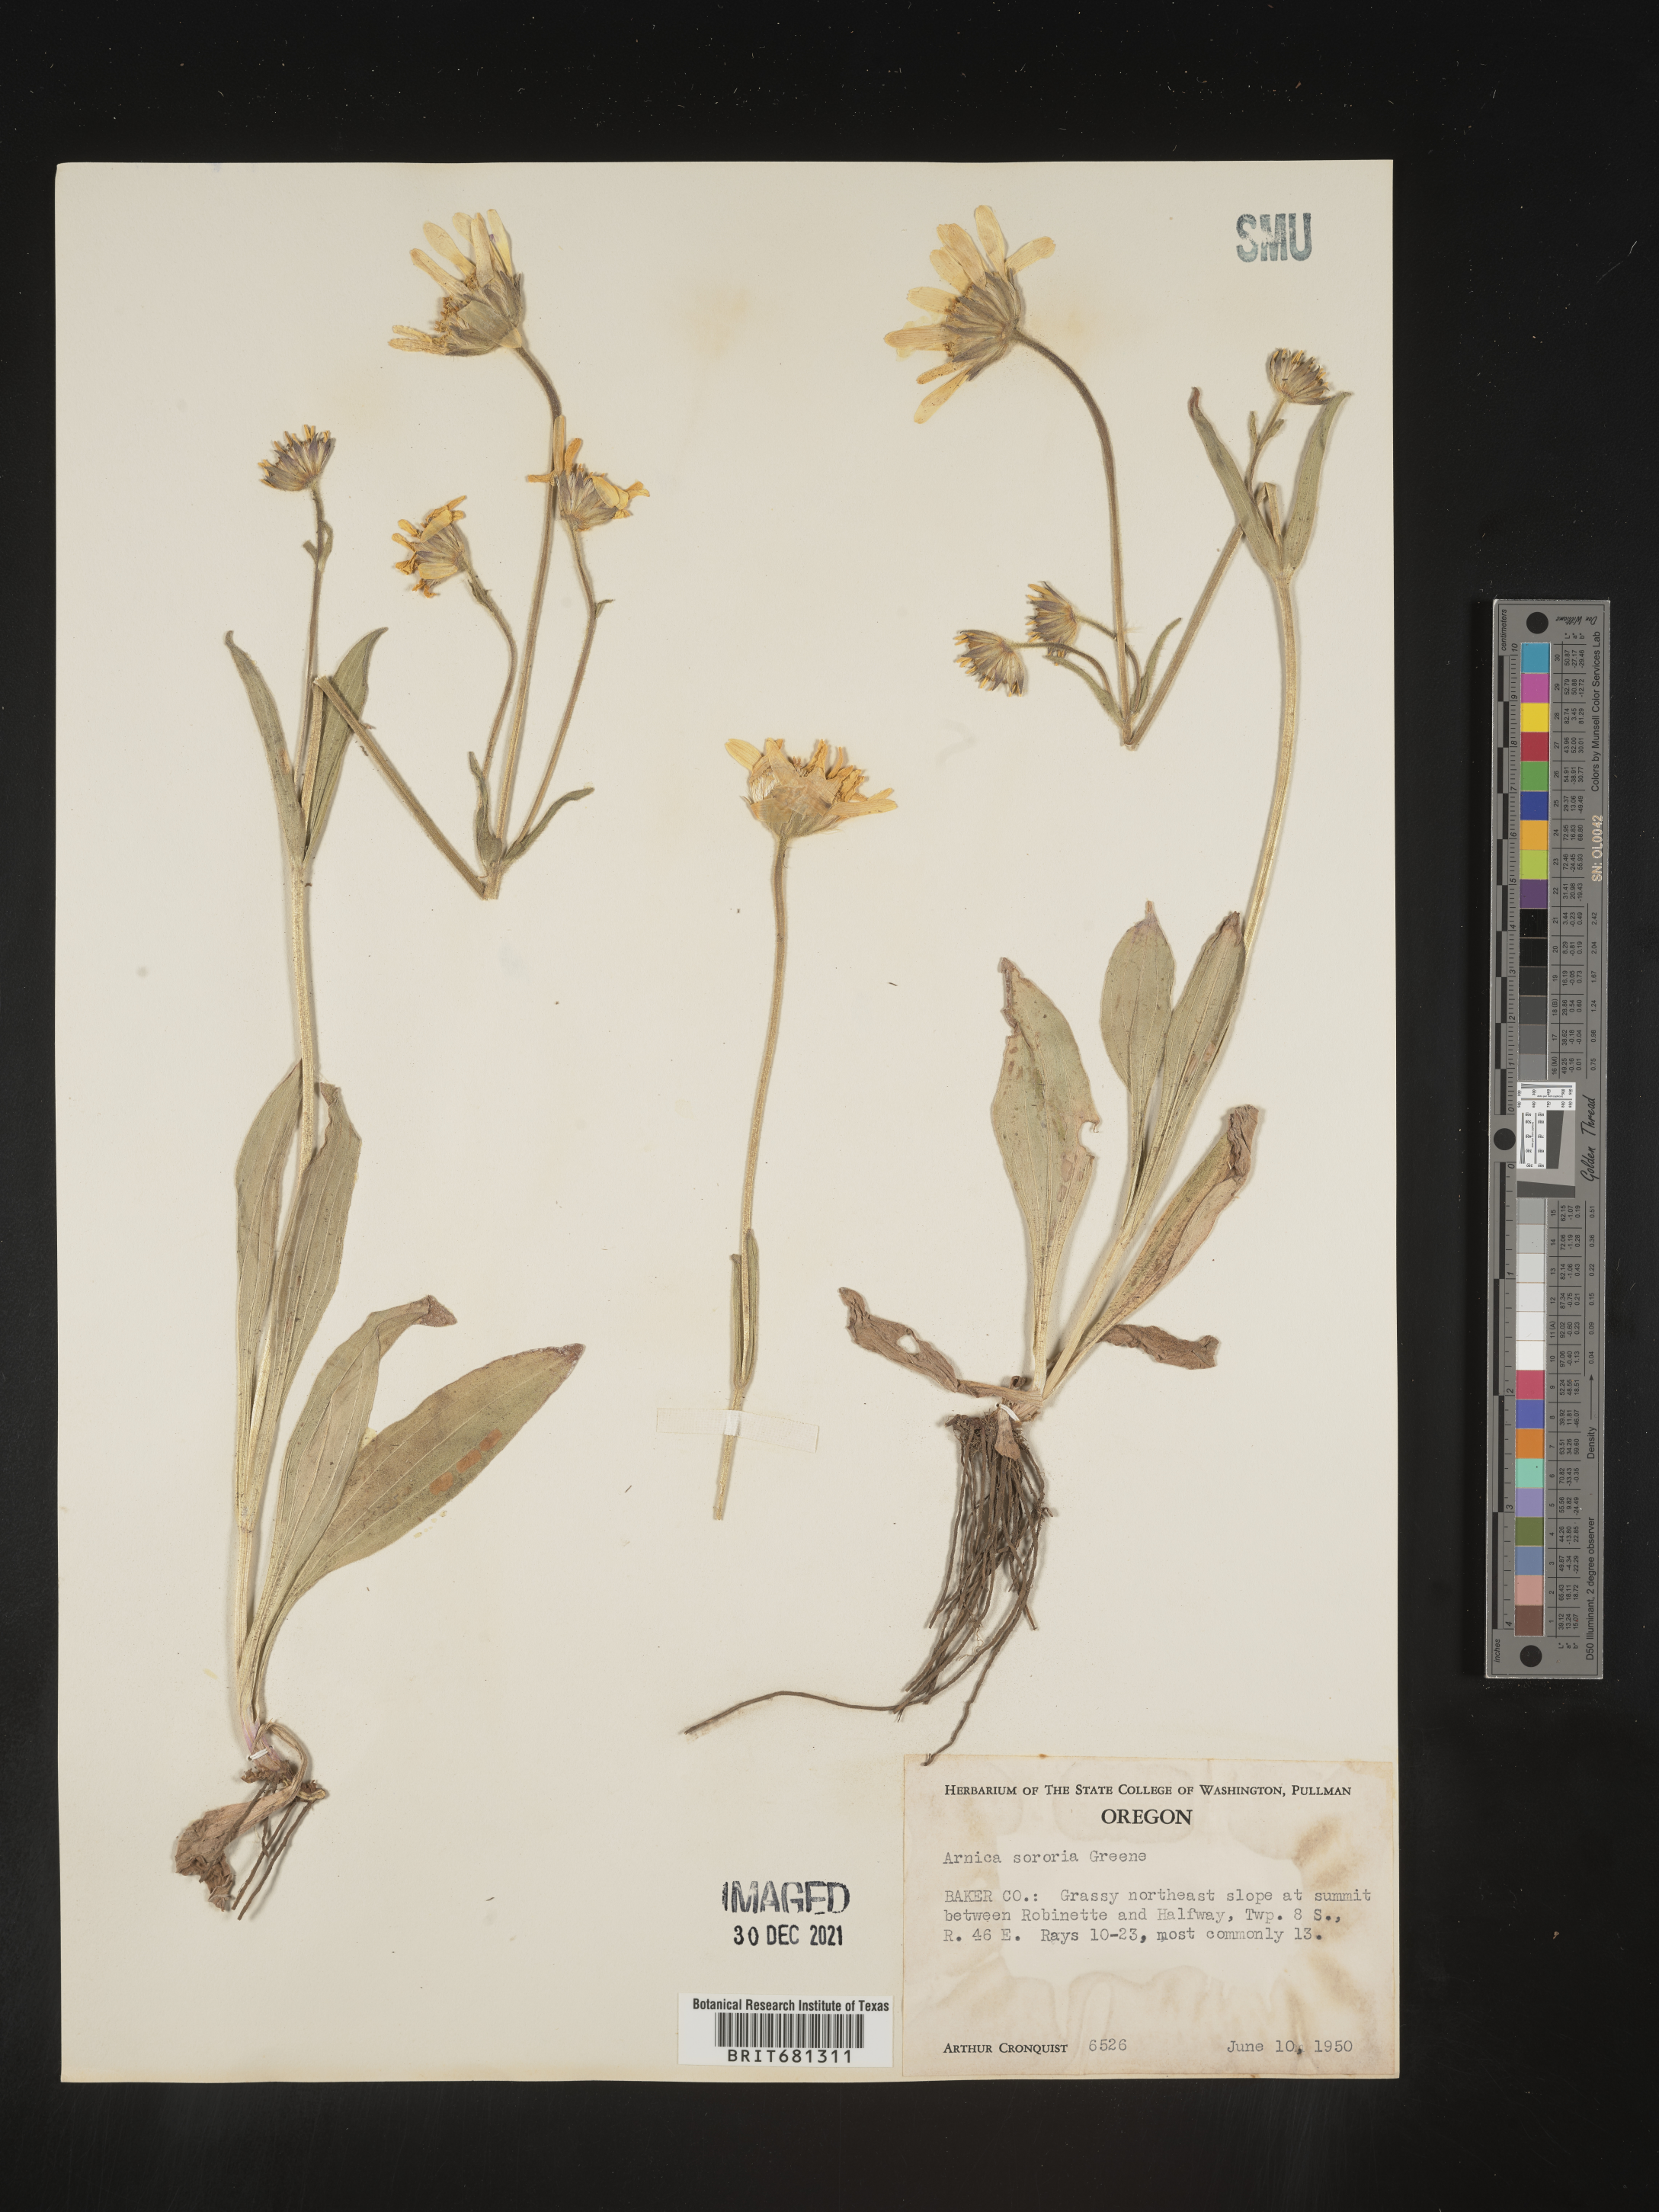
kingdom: Plantae
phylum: Tracheophyta
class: Magnoliopsida
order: Asterales
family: Asteraceae
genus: Arnica
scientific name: Arnica sororia
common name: Twin arnica
